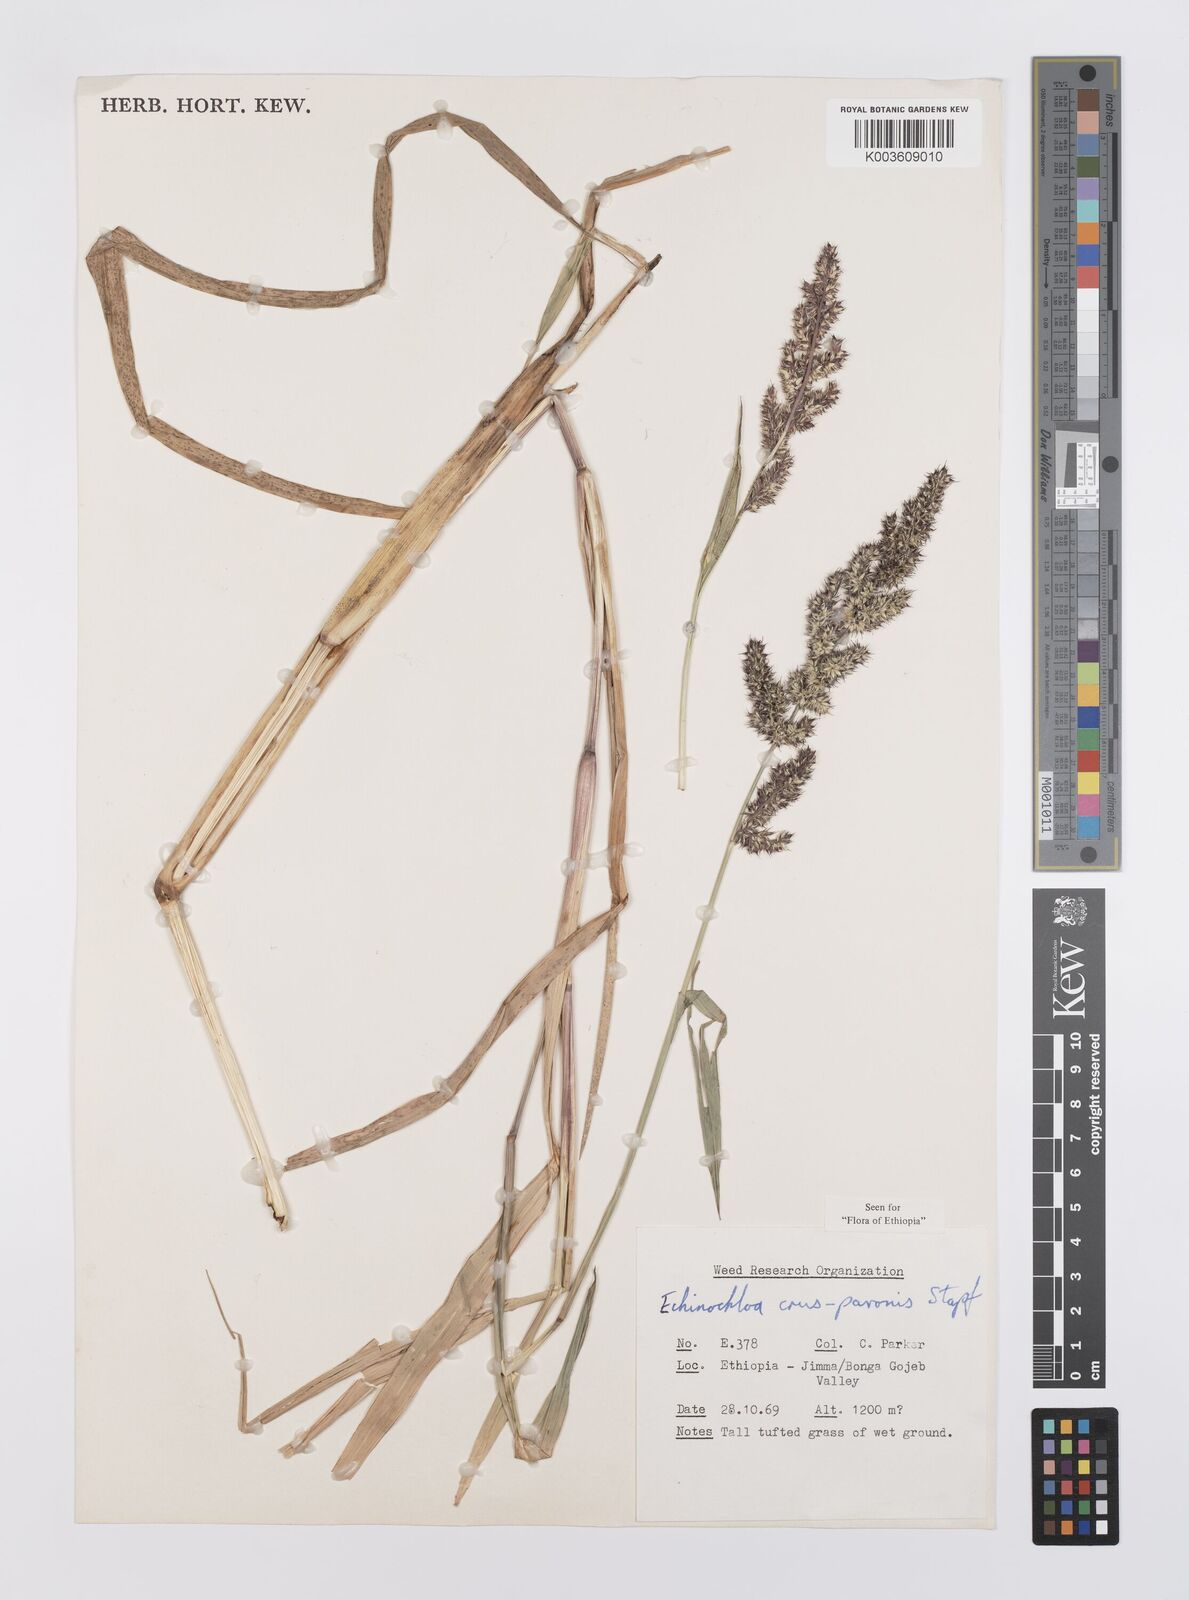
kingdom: Plantae
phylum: Tracheophyta
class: Liliopsida
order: Poales
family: Poaceae
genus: Echinochloa
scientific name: Echinochloa crus-pavonis
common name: Gulf cockspur grass
